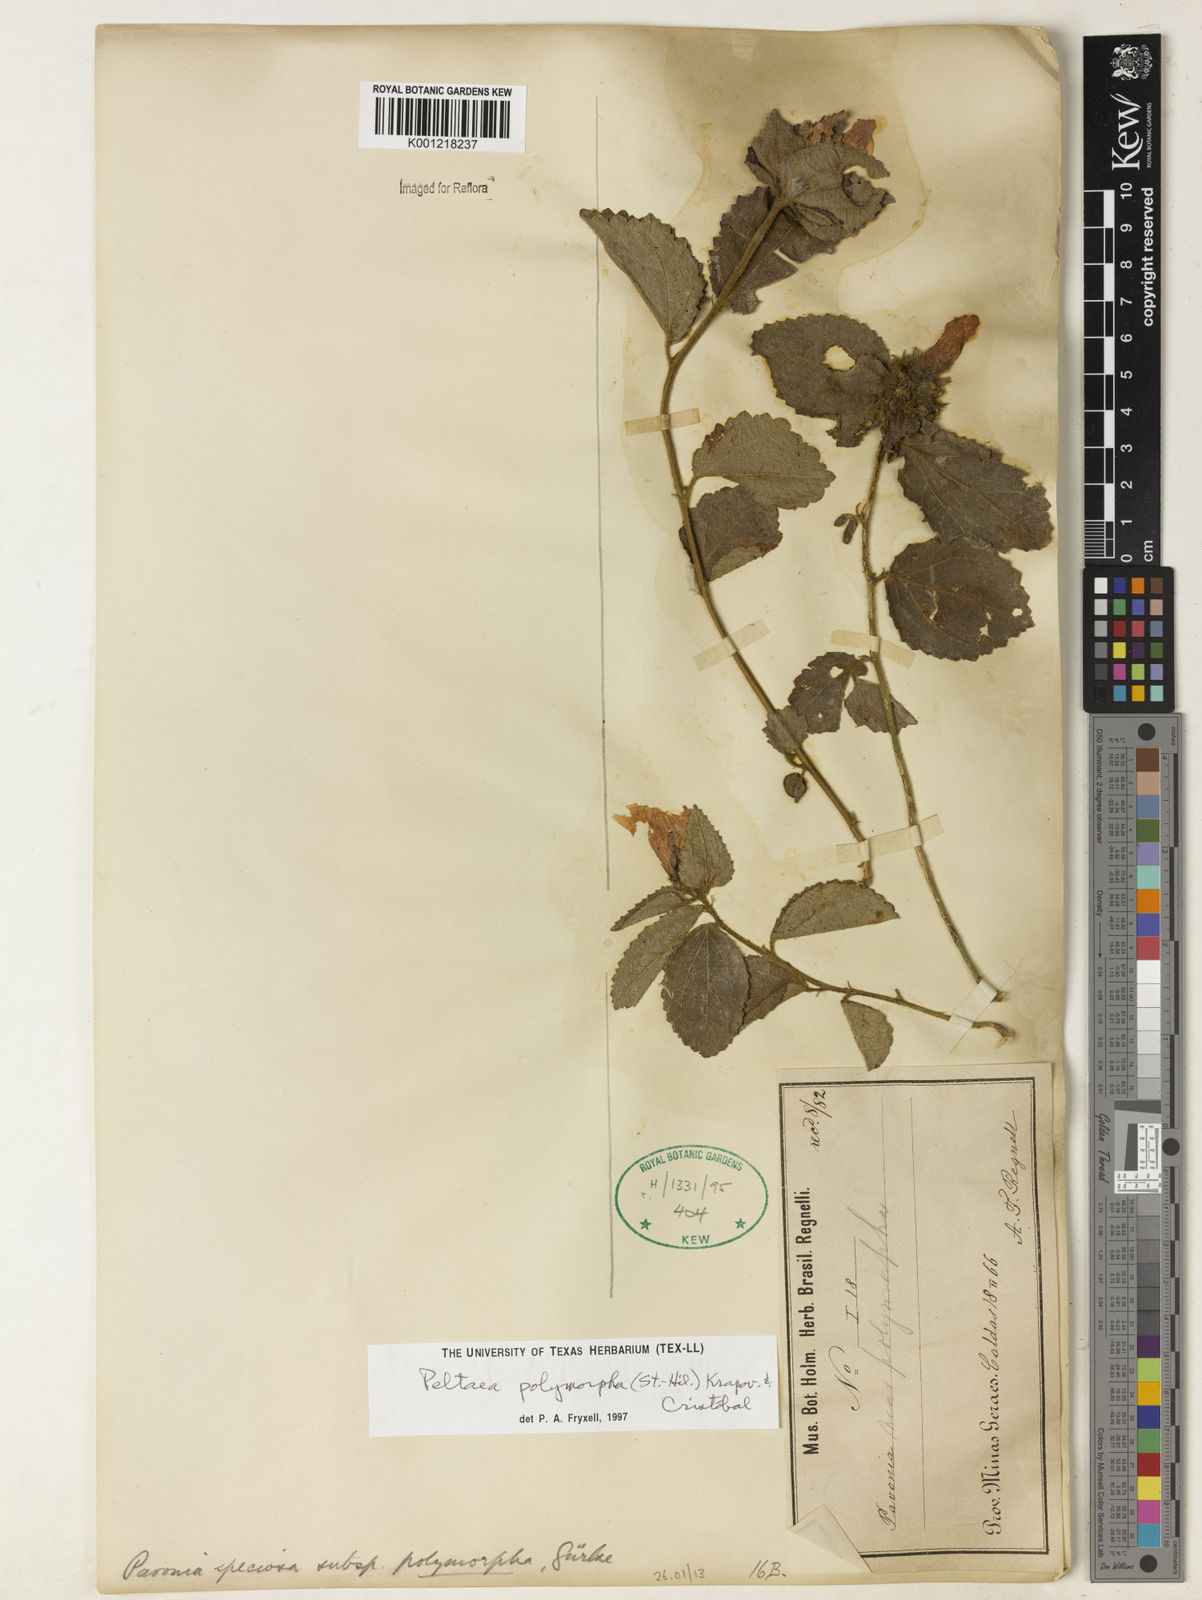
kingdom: Plantae
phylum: Tracheophyta
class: Magnoliopsida
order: Malvales
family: Malvaceae
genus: Peltaea
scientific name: Peltaea
